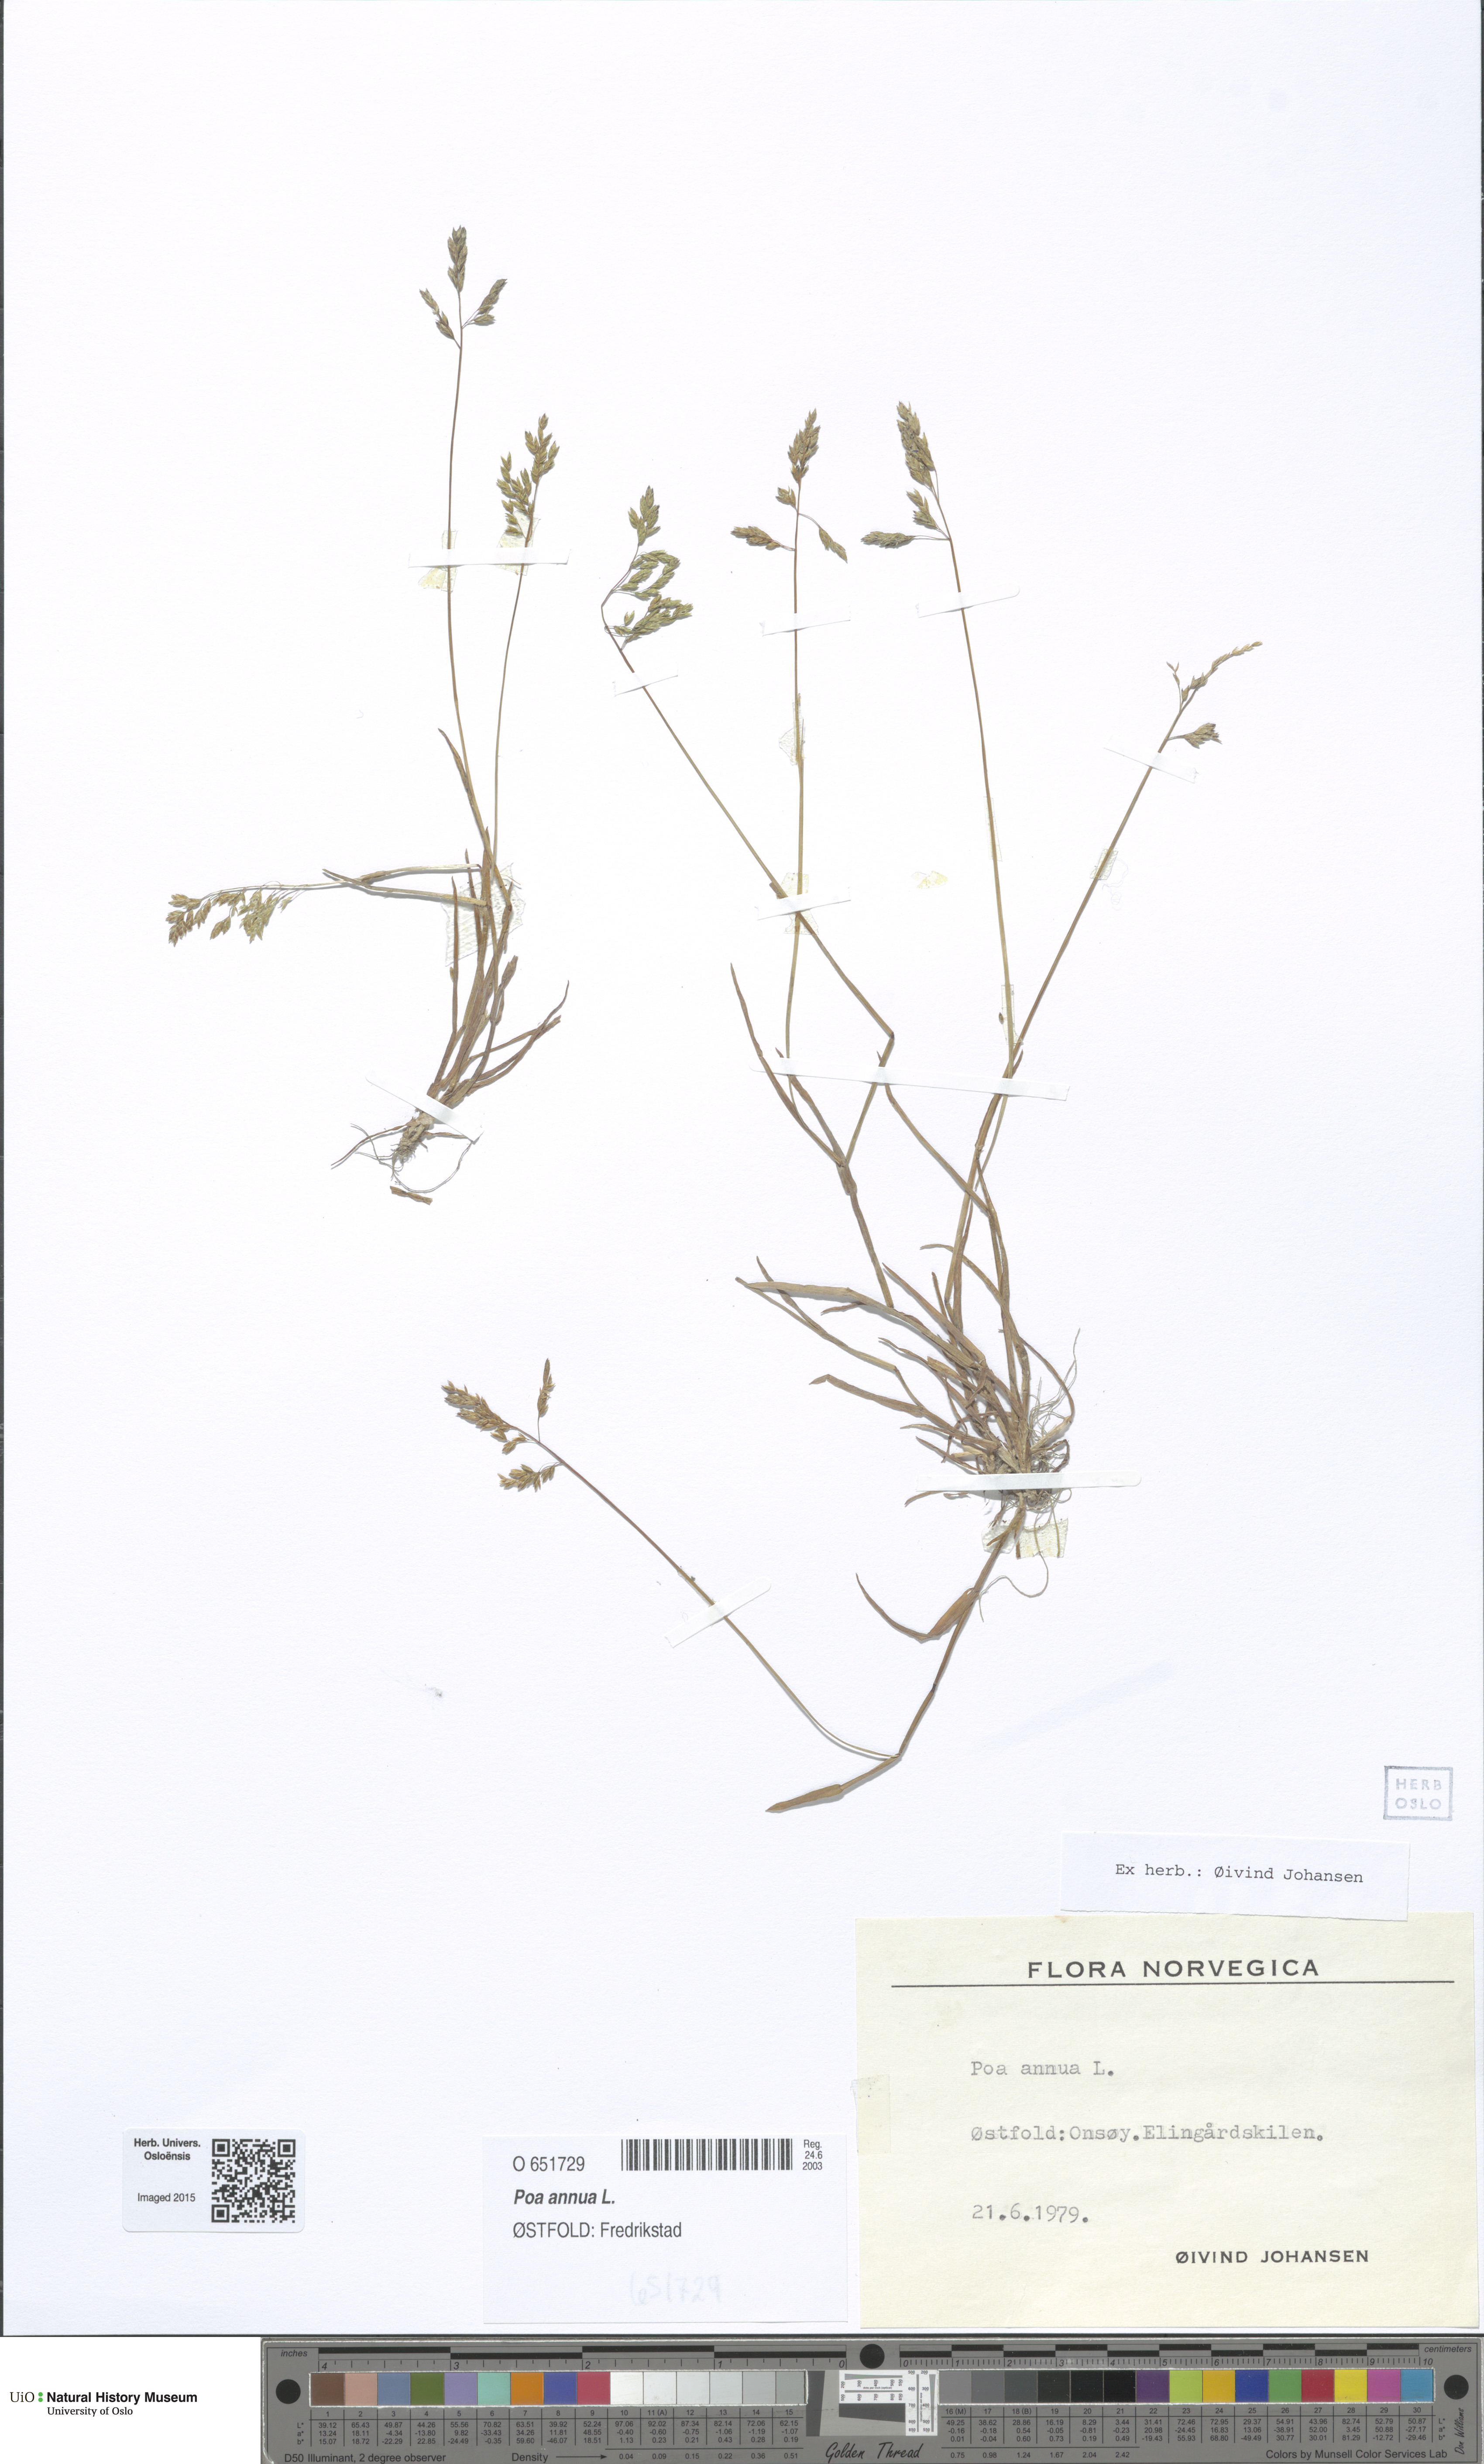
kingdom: Plantae
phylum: Tracheophyta
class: Liliopsida
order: Poales
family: Poaceae
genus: Poa
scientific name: Poa annua
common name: Annual bluegrass
